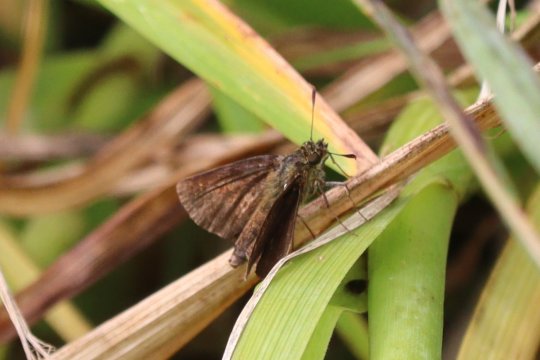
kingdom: Animalia
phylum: Arthropoda
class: Insecta
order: Lepidoptera
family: Hesperiidae
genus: Poanes
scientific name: Poanes massasoit
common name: Mulberry Wing
